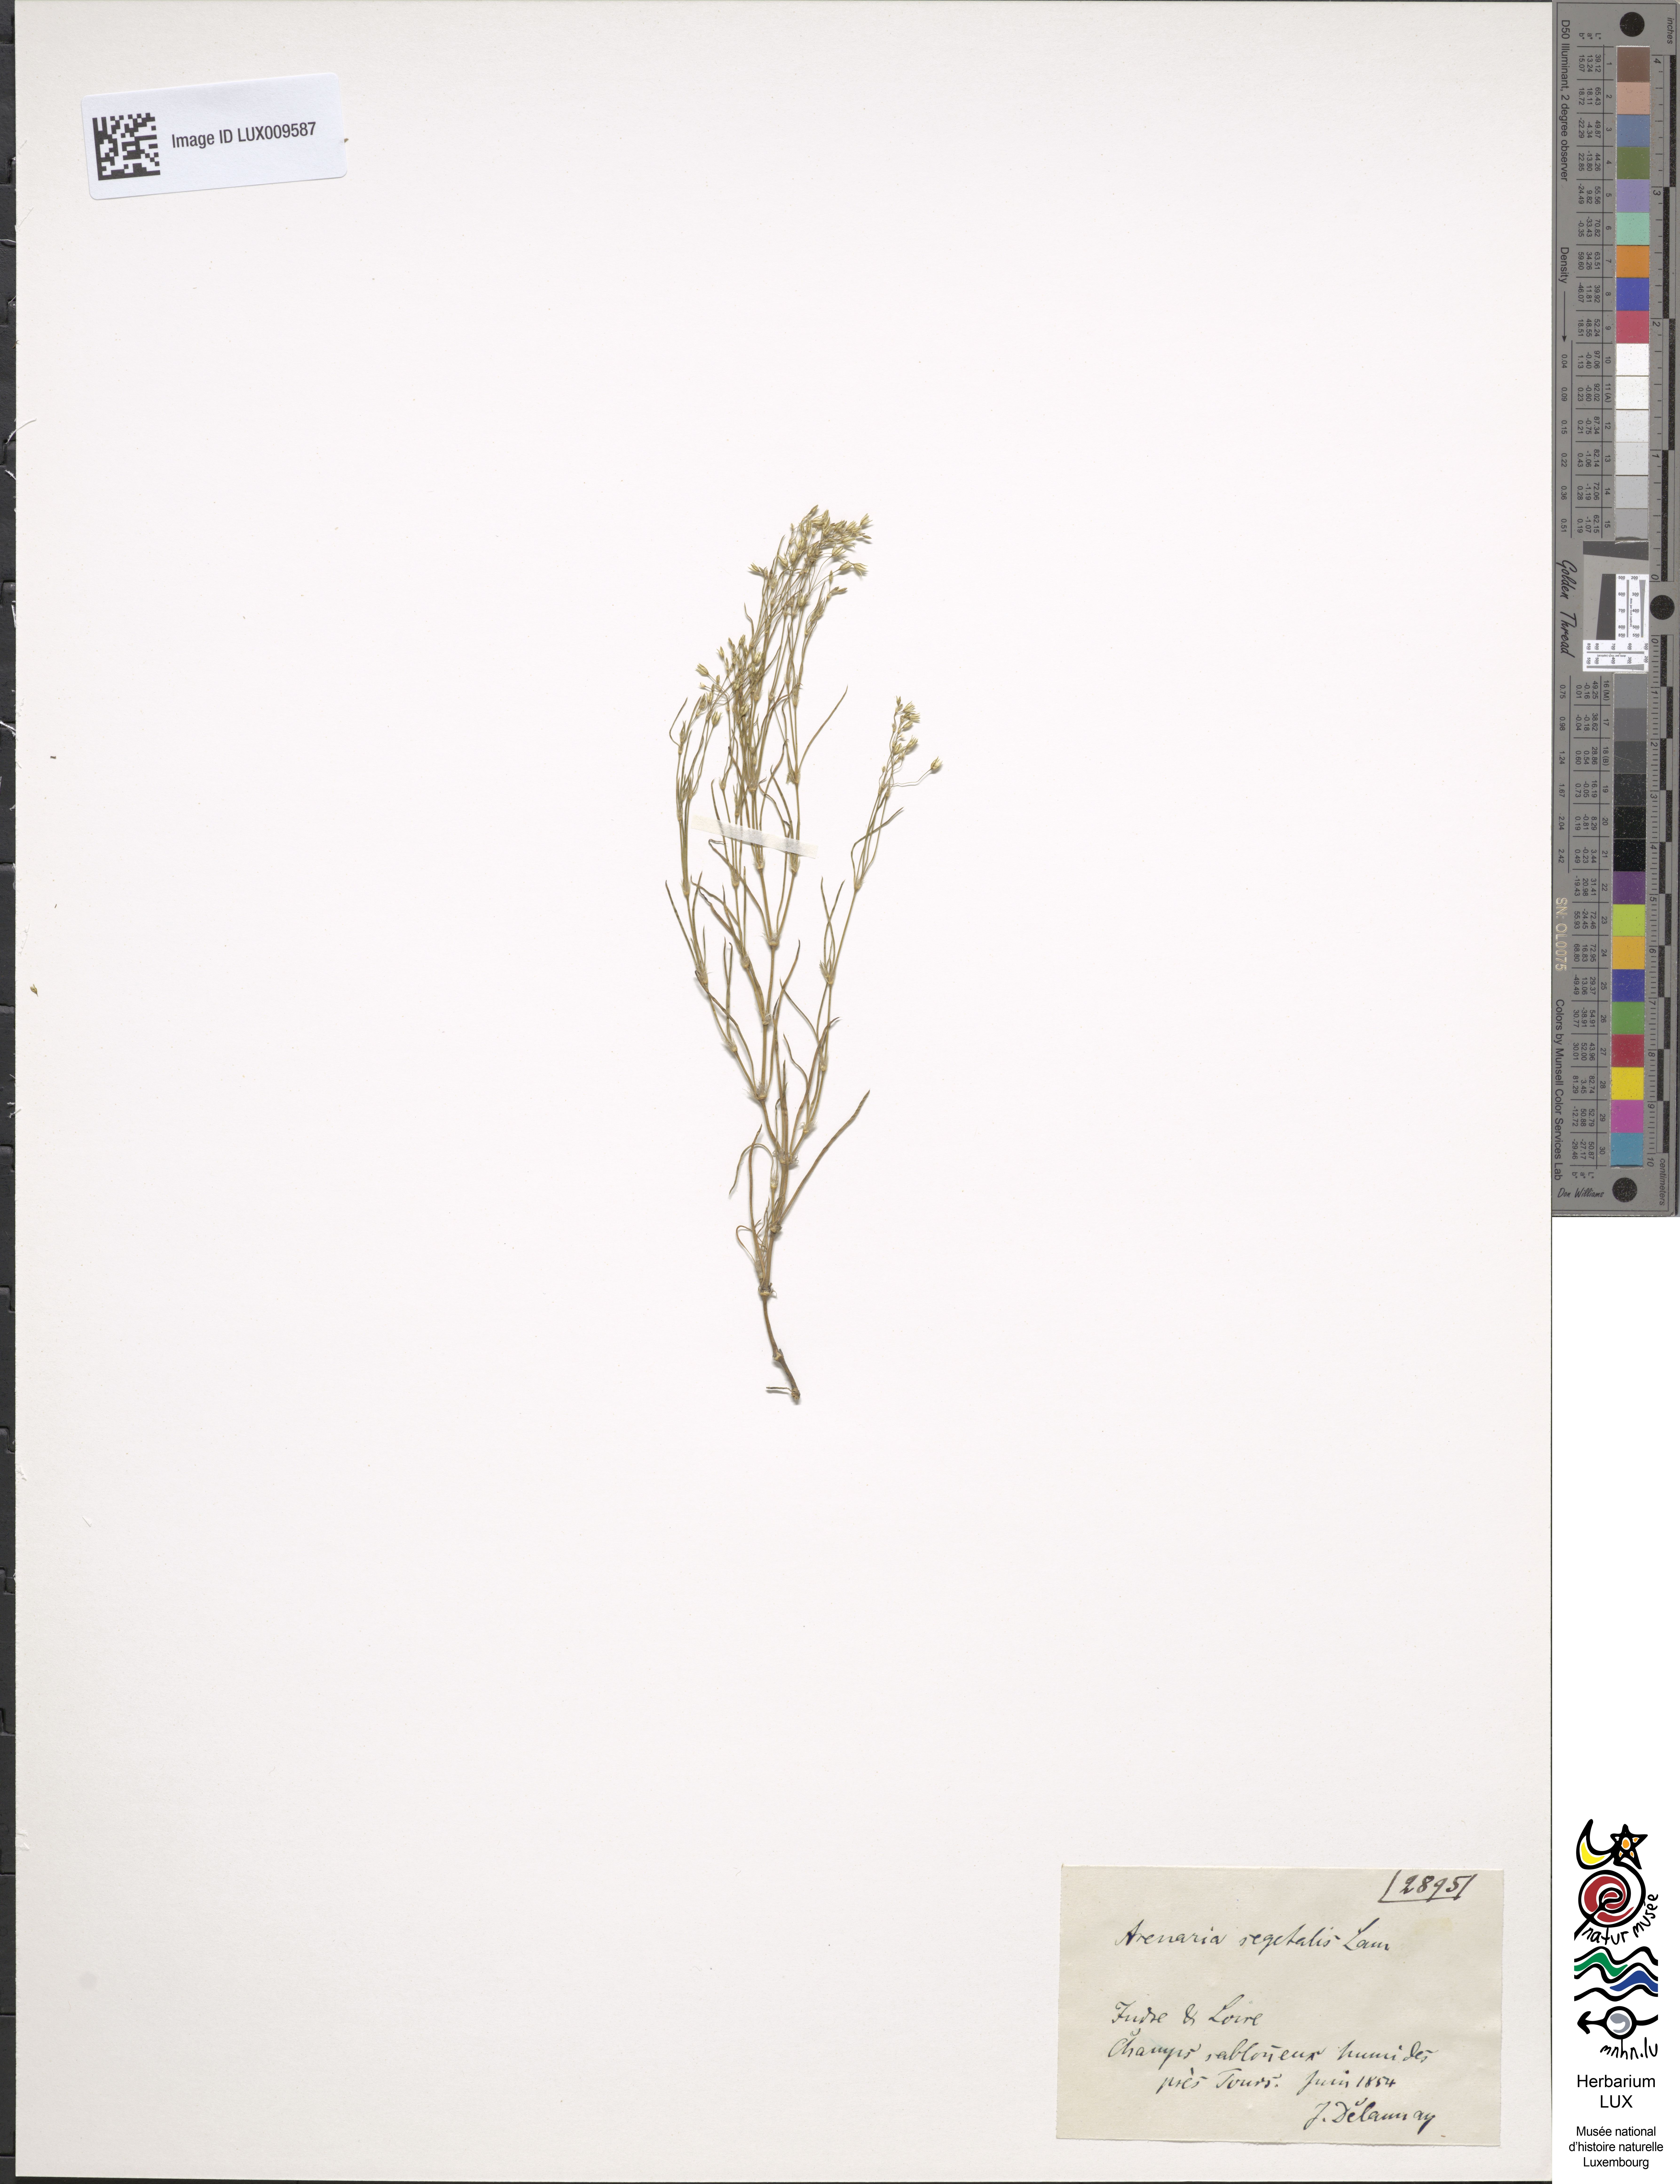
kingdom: Plantae
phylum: Tracheophyta
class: Magnoliopsida
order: Caryophyllales
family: Caryophyllaceae
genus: Spergularia
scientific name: Spergularia segetalis
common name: Corn sand spurrey
